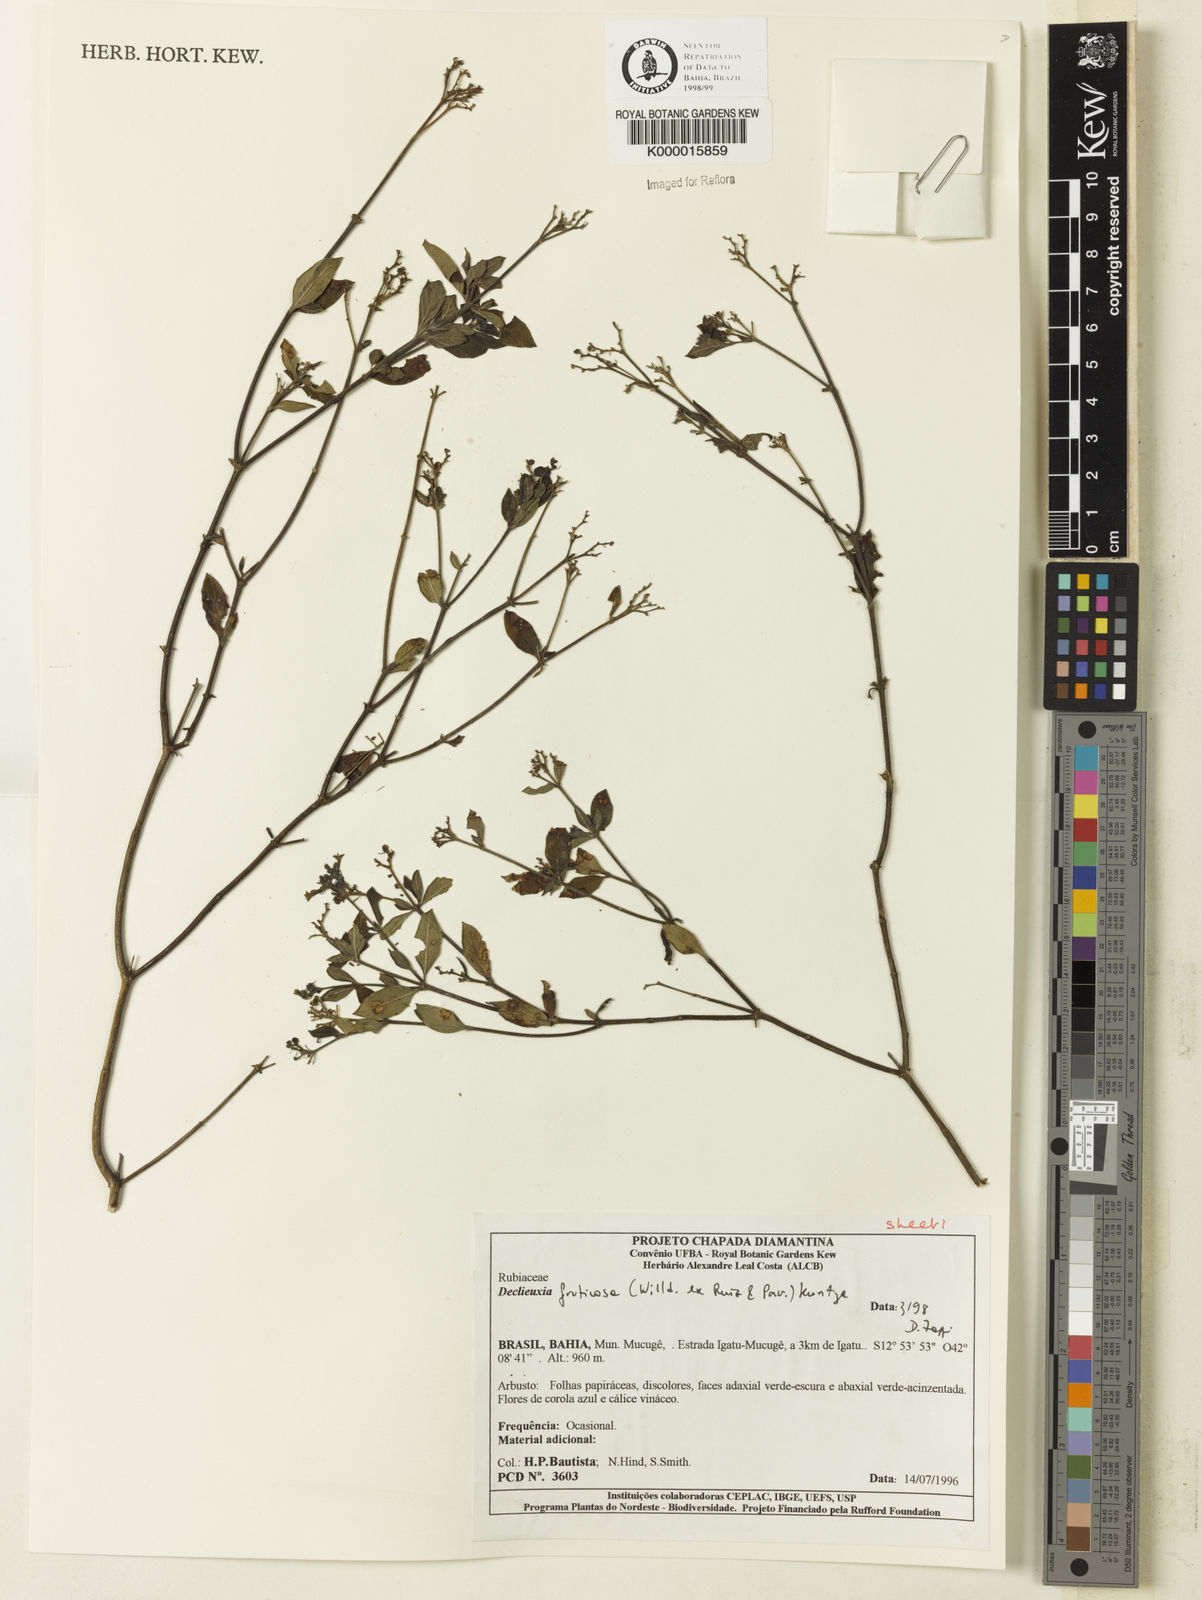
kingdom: Plantae
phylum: Tracheophyta
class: Magnoliopsida
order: Gentianales
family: Rubiaceae
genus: Declieuxia
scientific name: Declieuxia fruticosa
